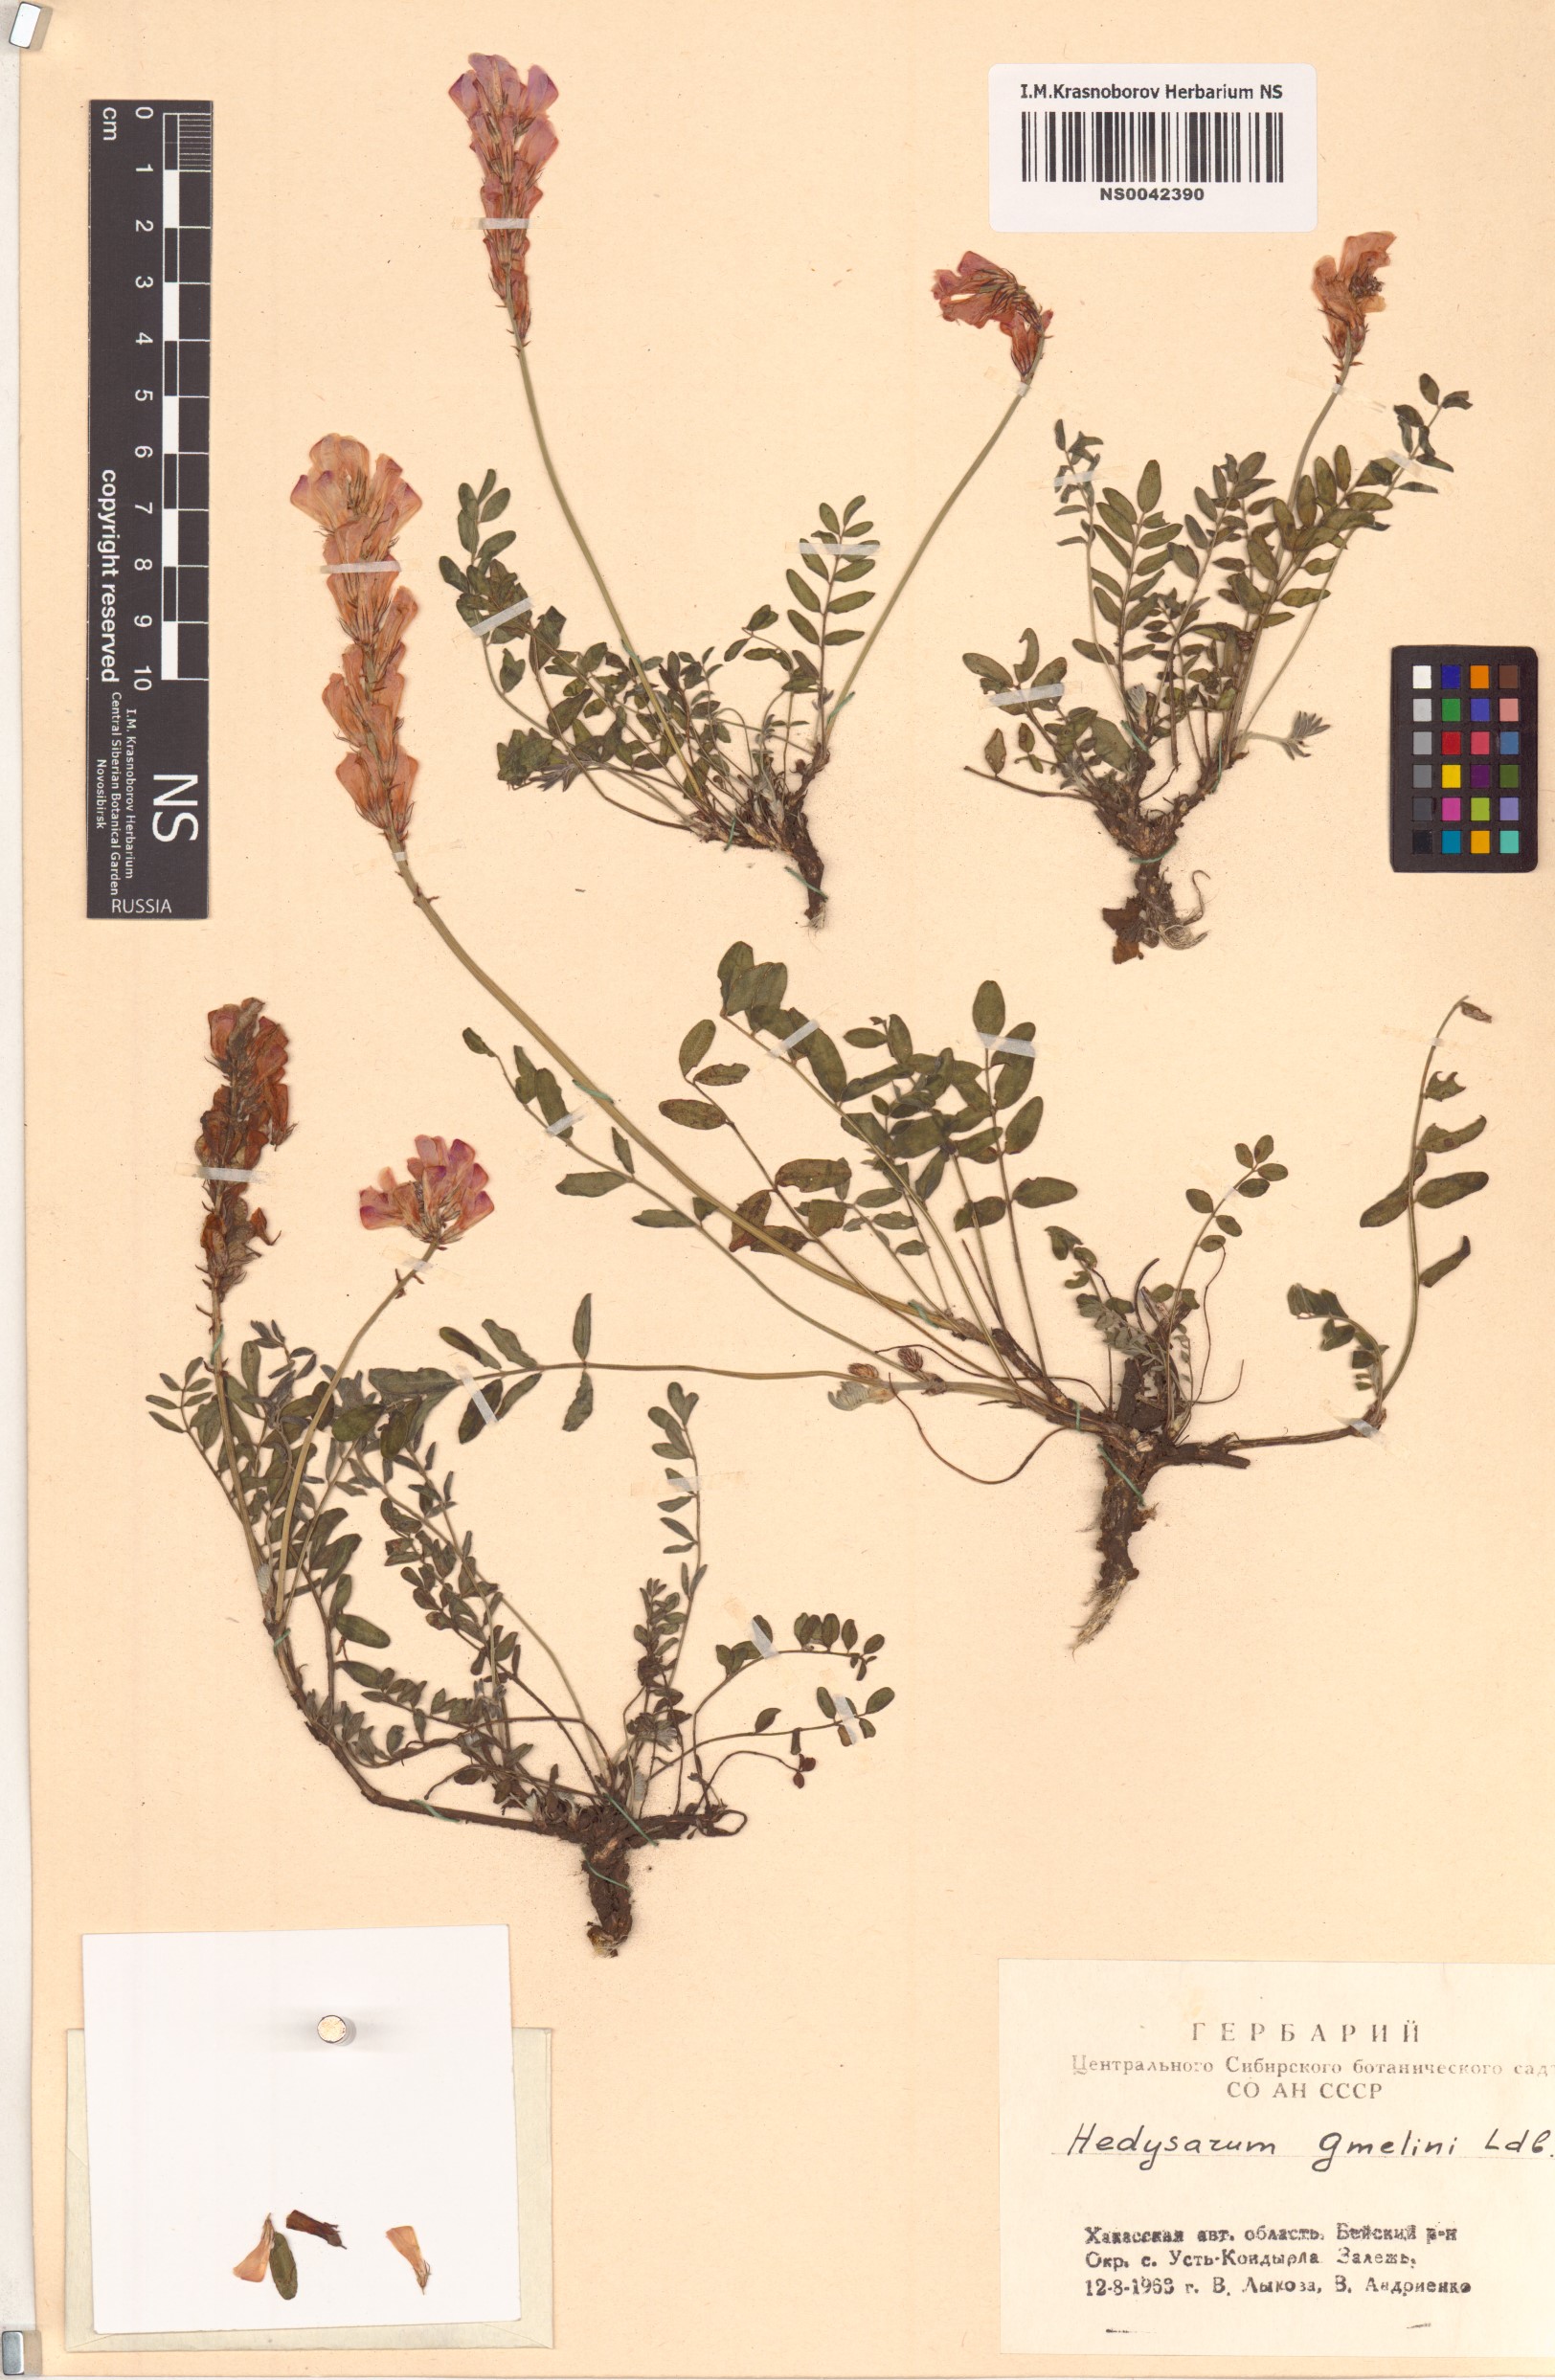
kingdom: Plantae
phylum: Tracheophyta
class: Magnoliopsida
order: Fabales
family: Fabaceae
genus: Hedysarum
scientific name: Hedysarum gmelinii
